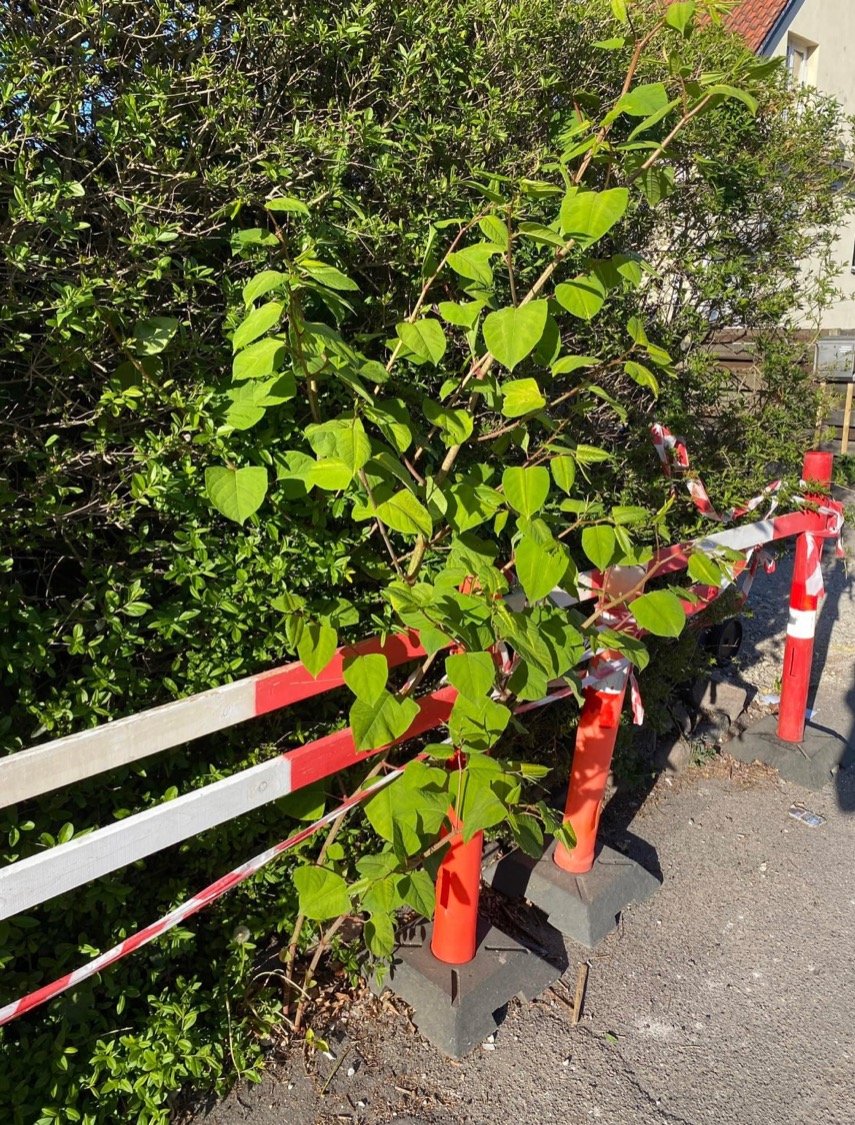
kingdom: Plantae
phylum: Tracheophyta
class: Magnoliopsida
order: Caryophyllales
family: Polygonaceae
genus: Reynoutria
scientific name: Reynoutria japonica
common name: Japan-pileurt
